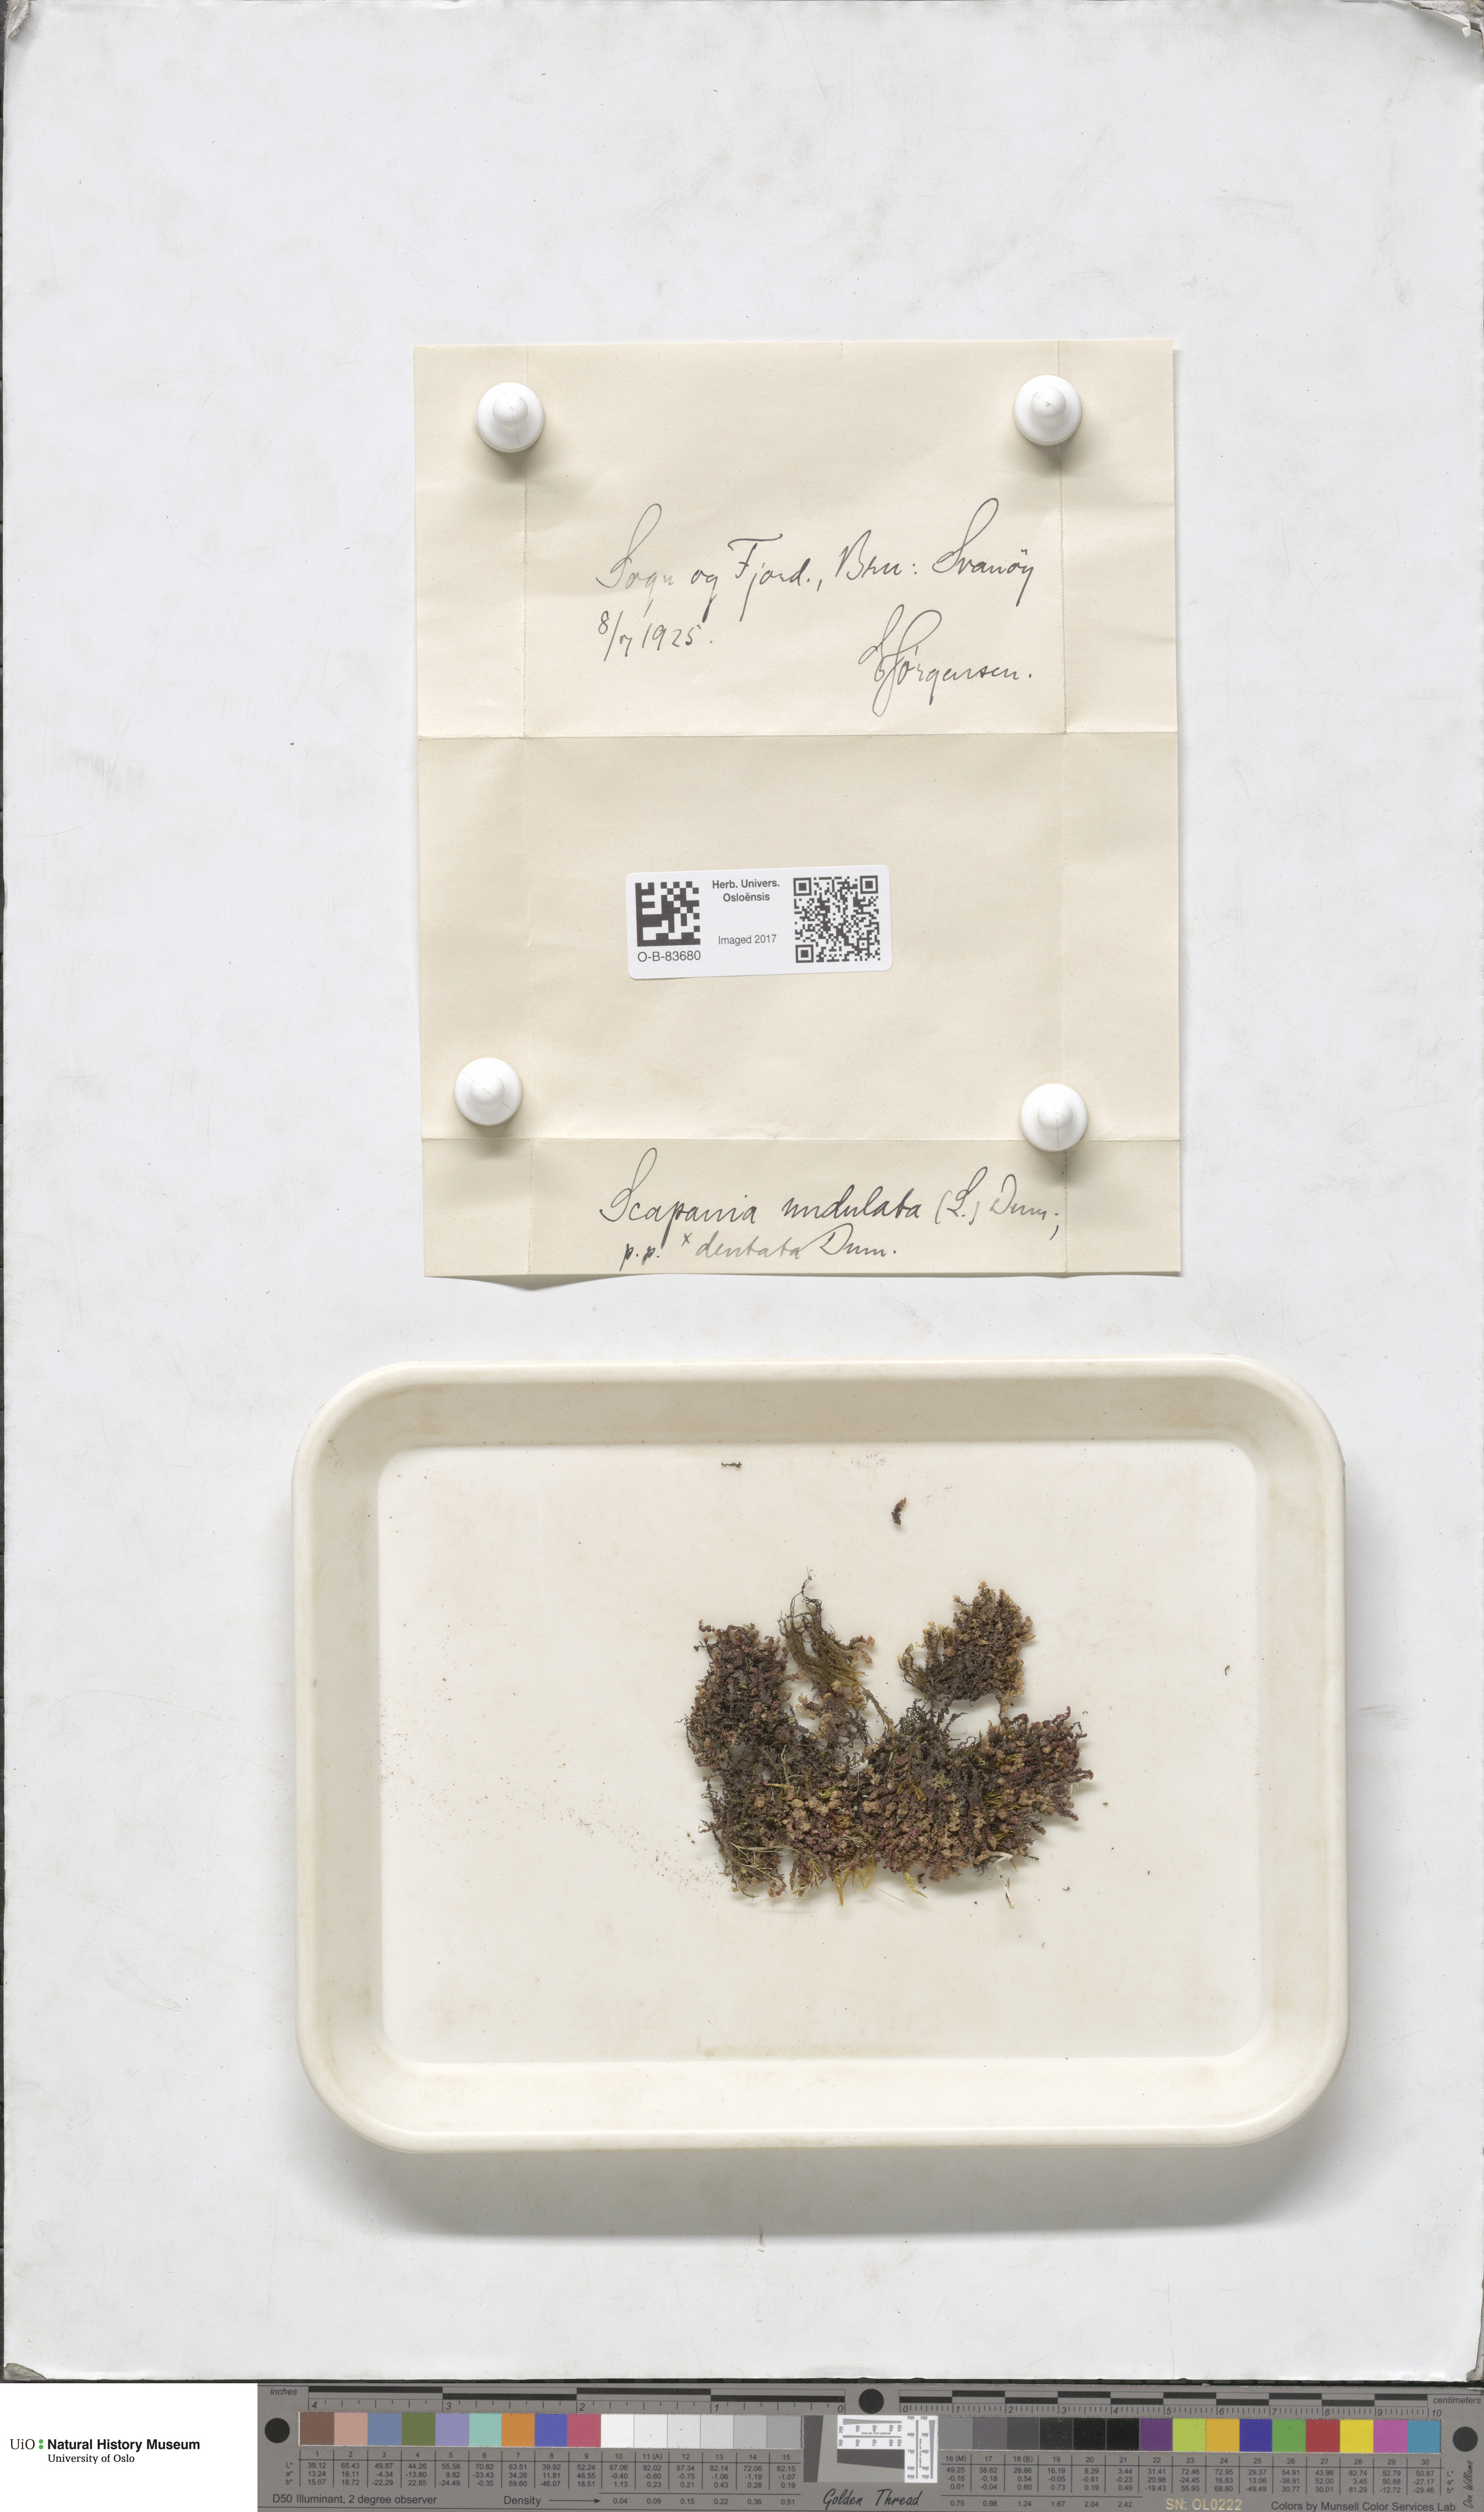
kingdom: Plantae
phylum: Marchantiophyta
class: Jungermanniopsida
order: Jungermanniales
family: Scapaniaceae
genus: Scapania
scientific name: Scapania undulata
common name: Water earwort
